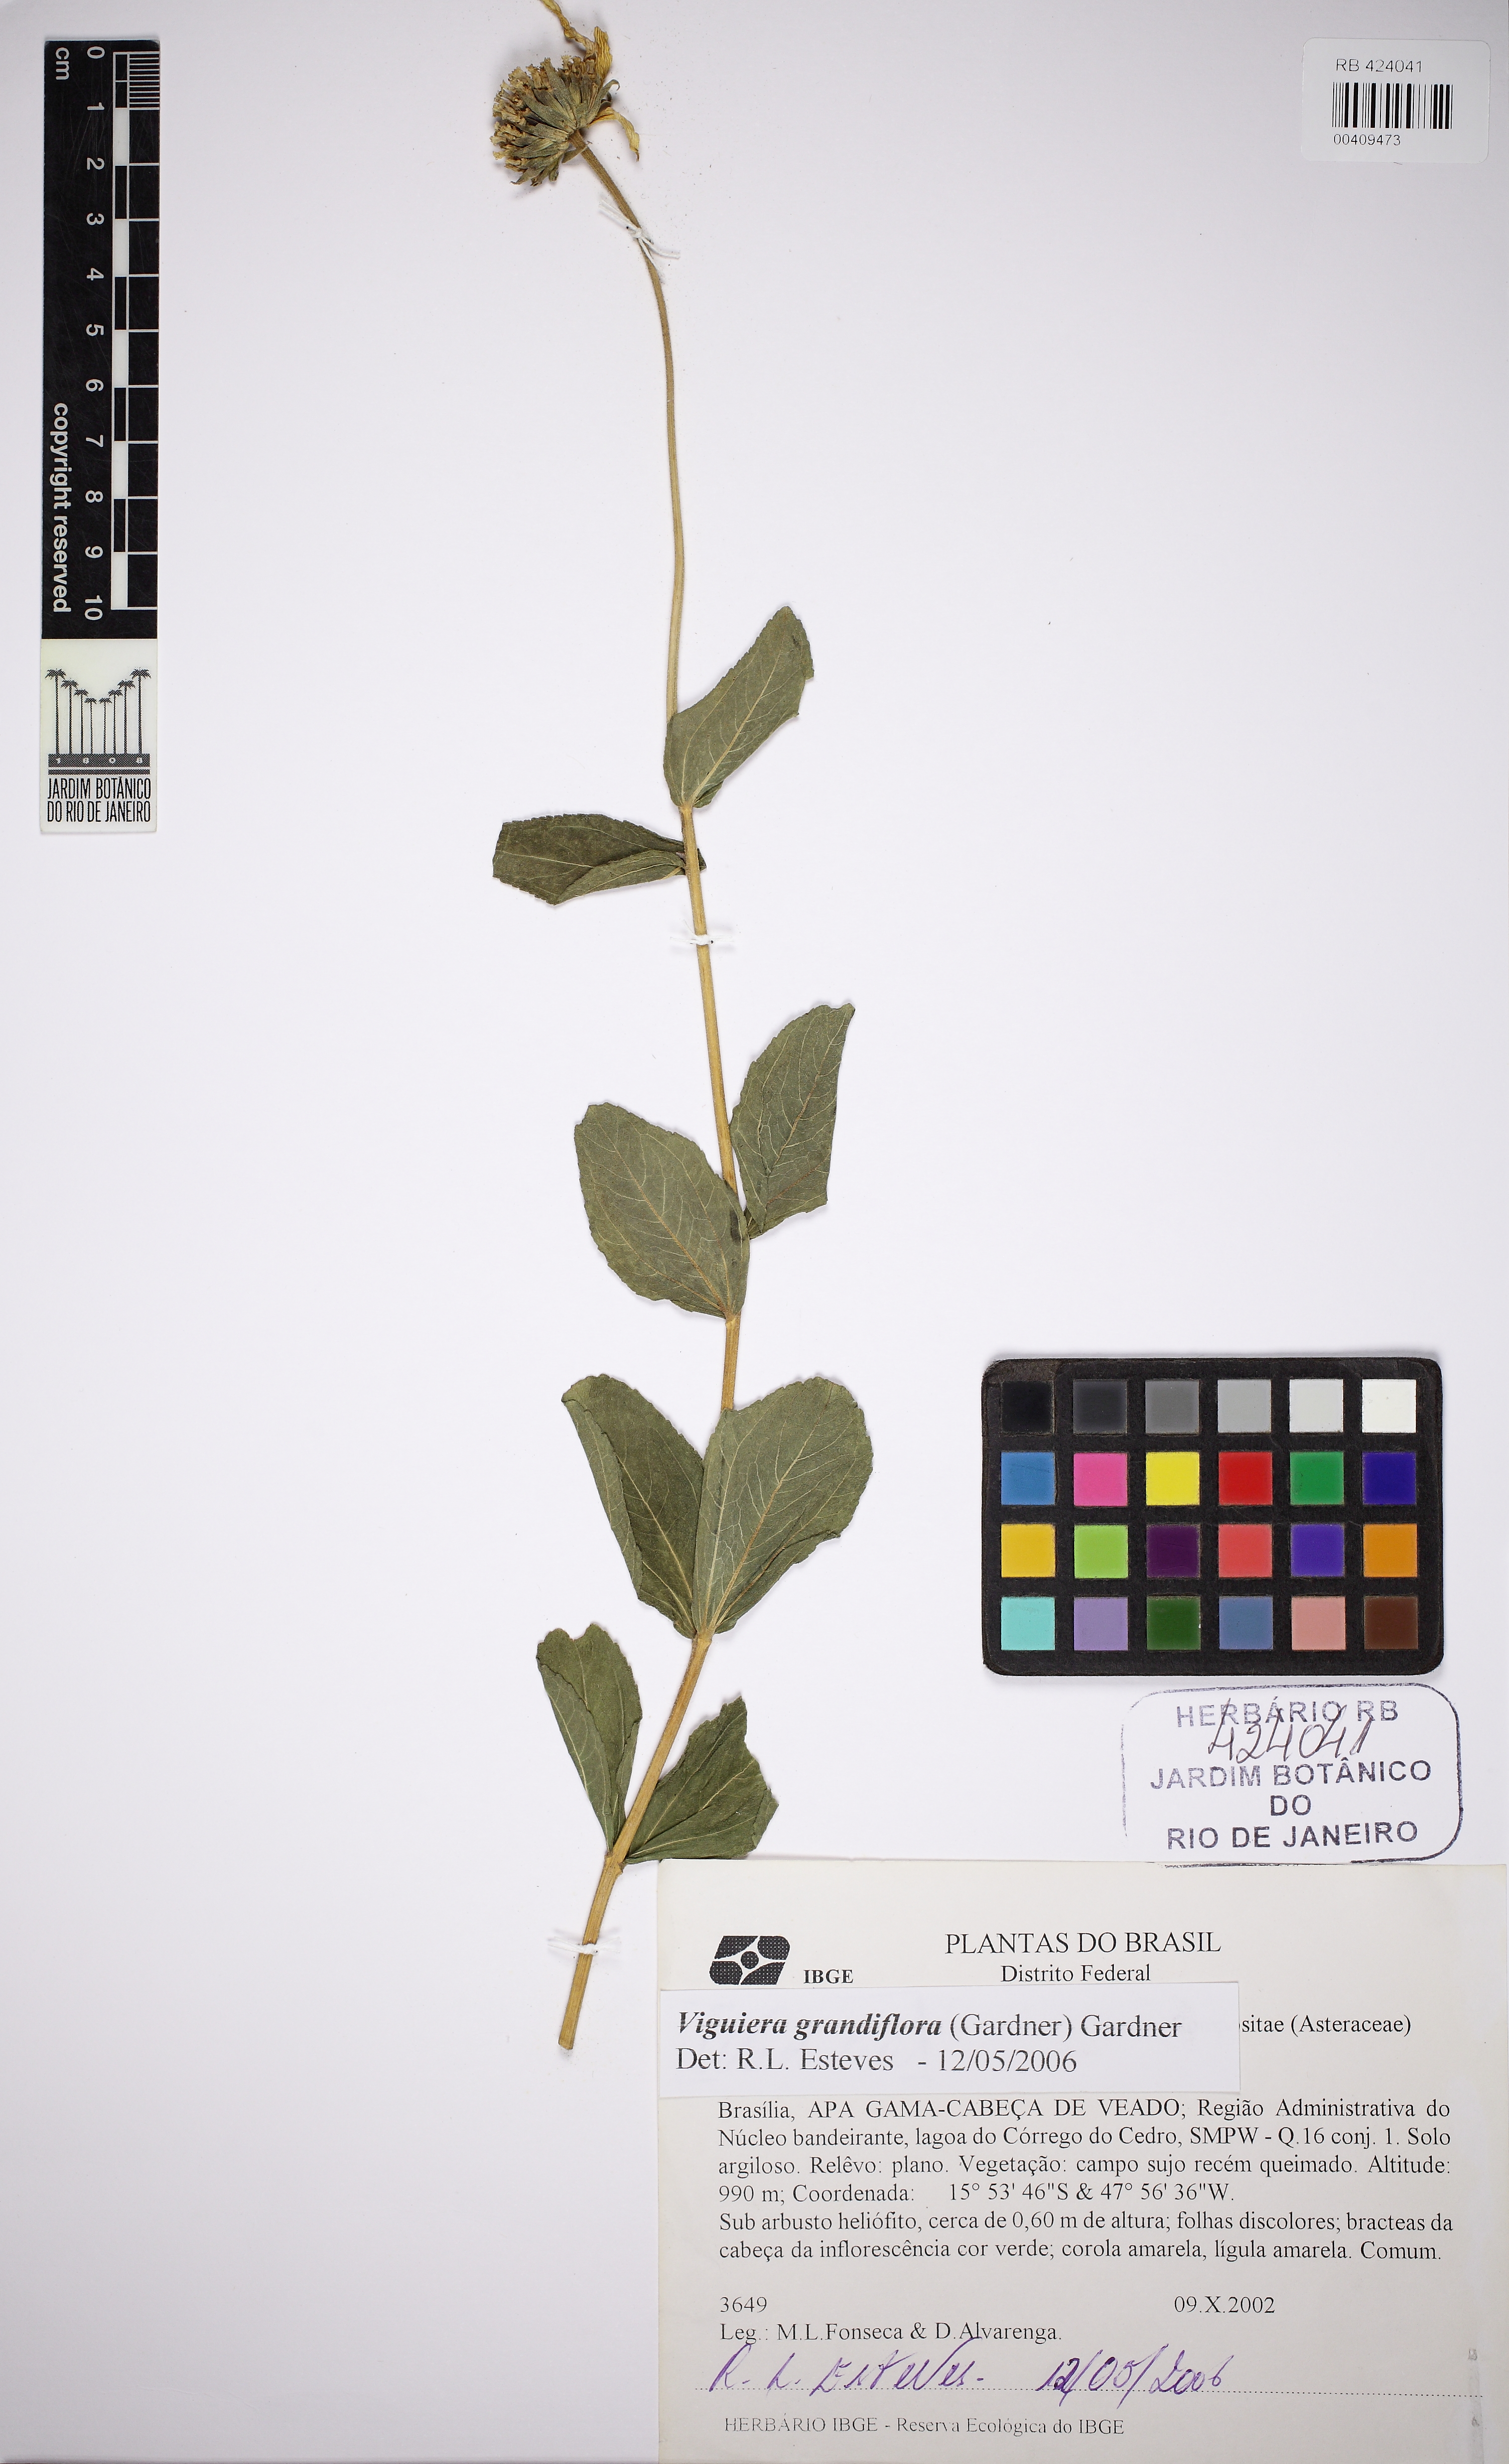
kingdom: Plantae
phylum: Tracheophyta
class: Magnoliopsida
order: Asterales
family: Asteraceae
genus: Aldama
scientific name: Aldama grandiflora
